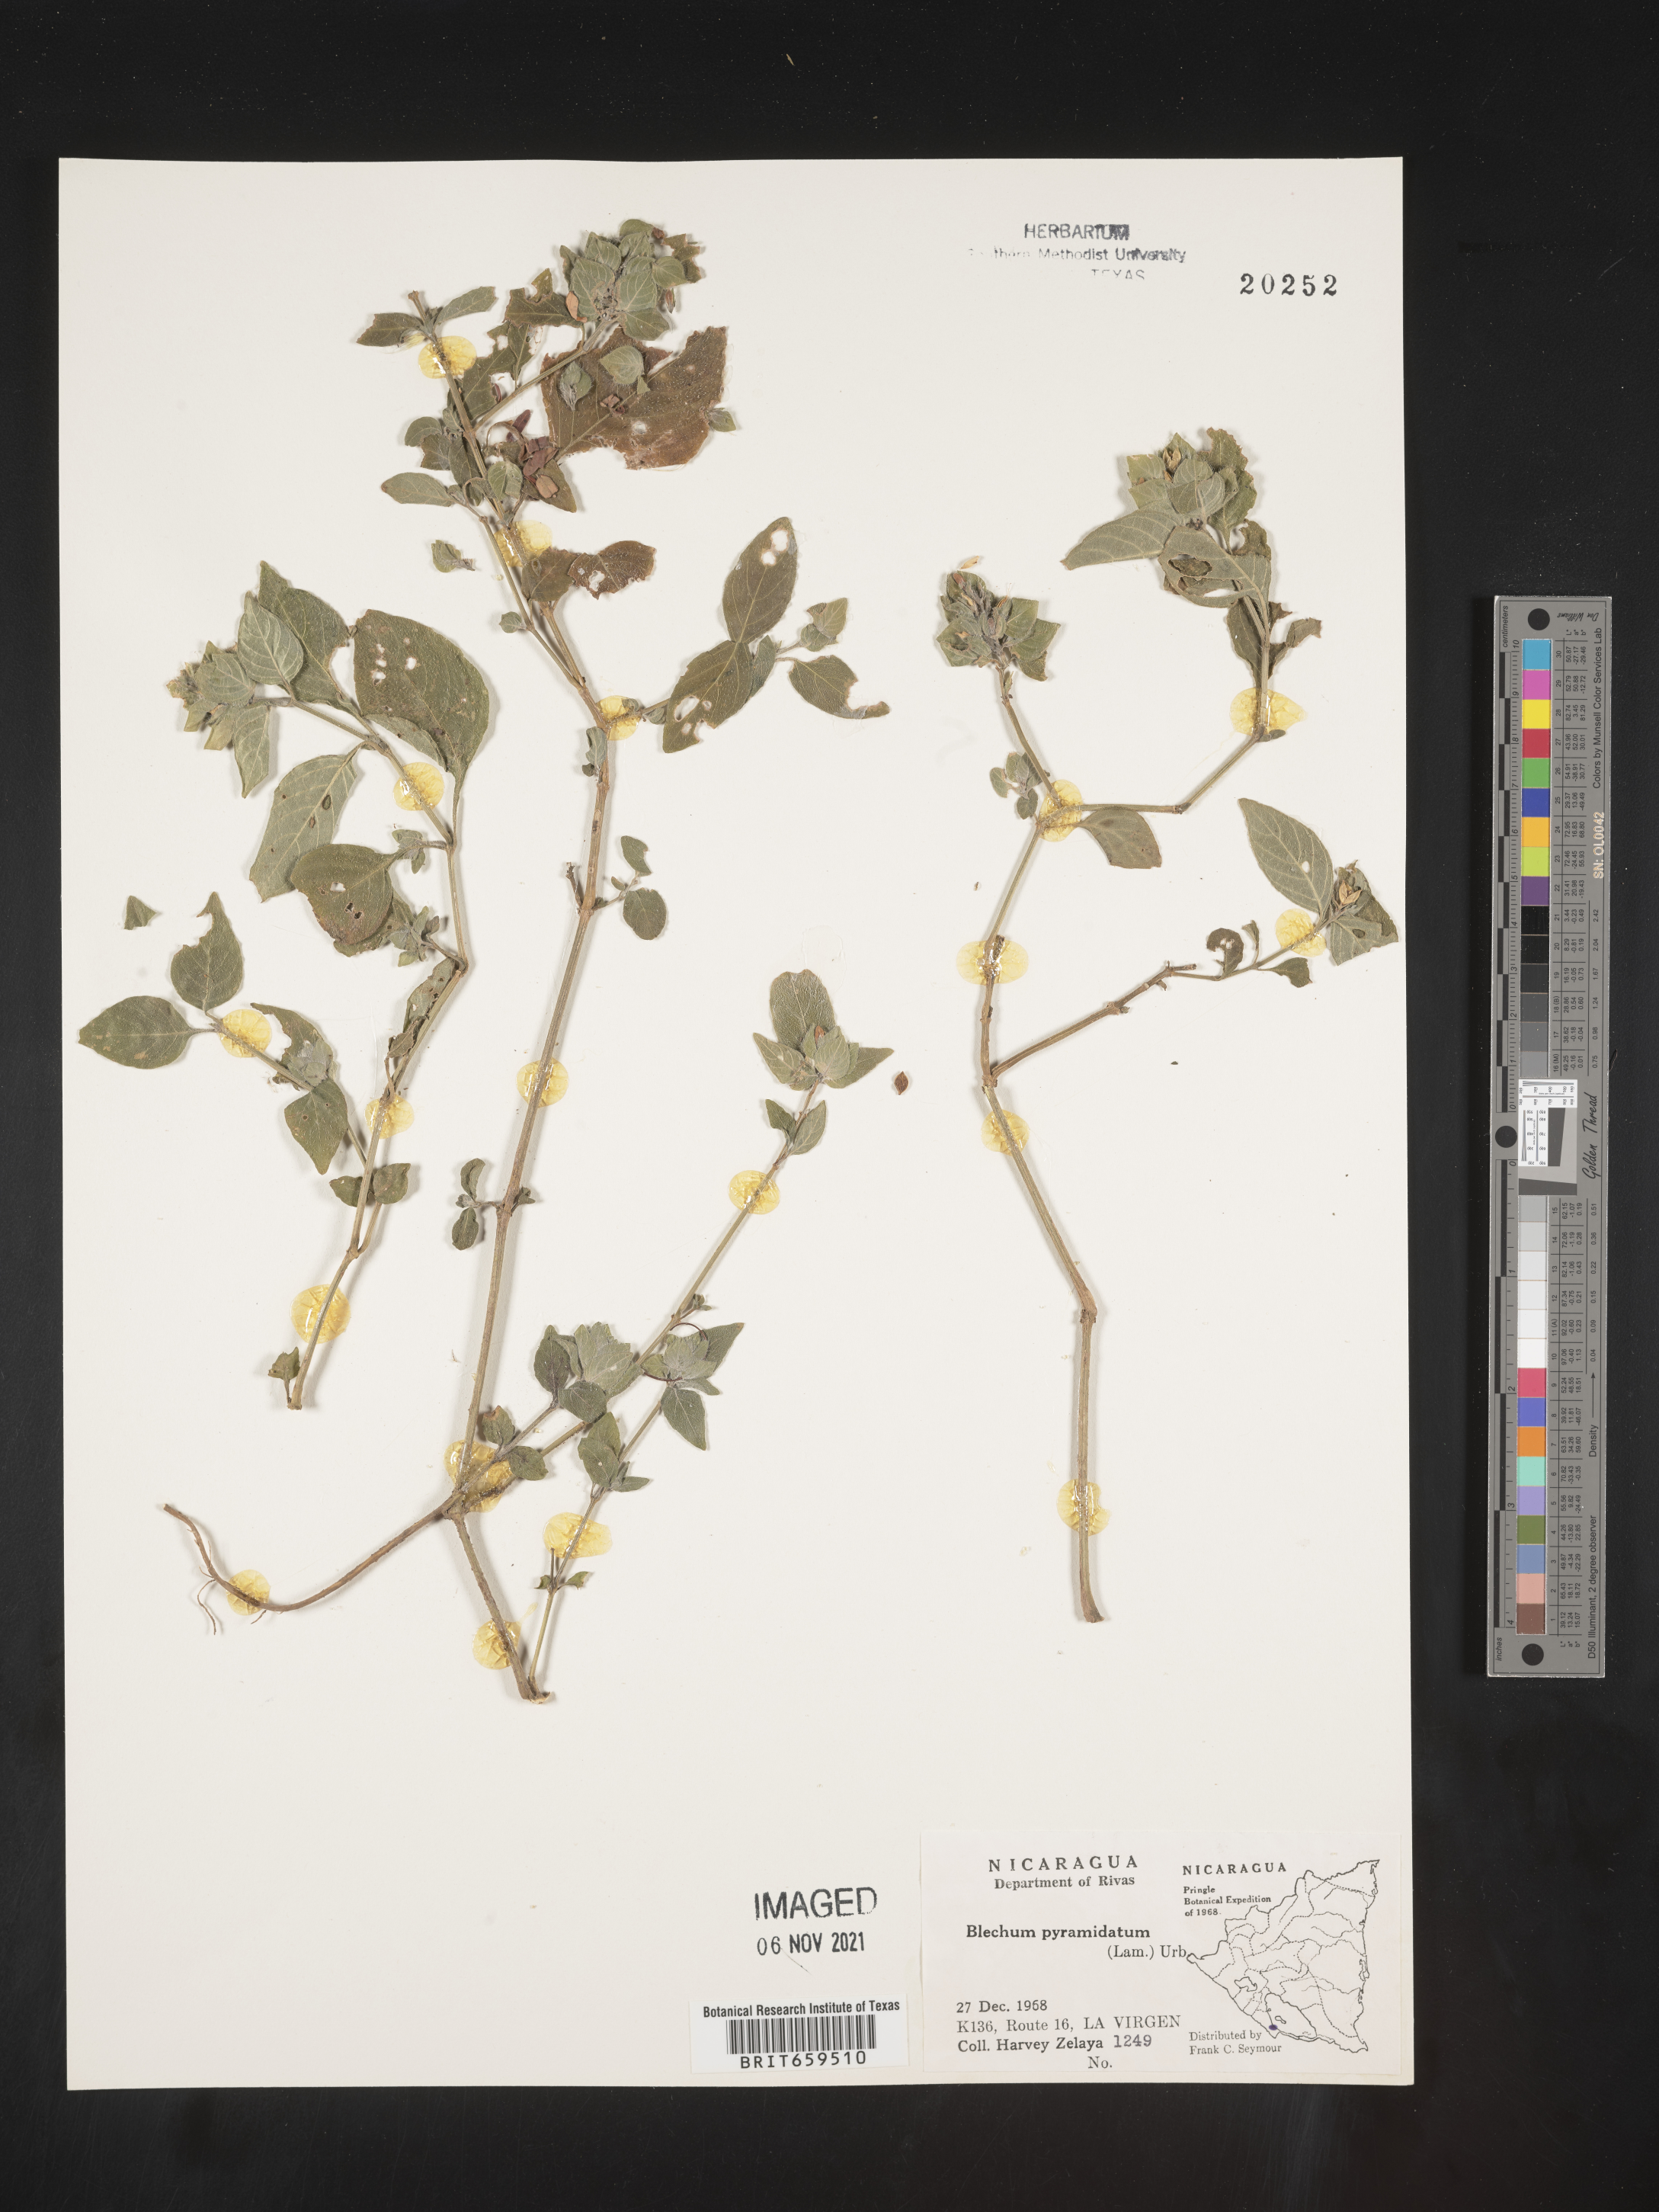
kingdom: Plantae
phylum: Tracheophyta
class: Polypodiopsida
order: Polypodiales
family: Blechnaceae
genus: Blechum
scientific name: Blechum
